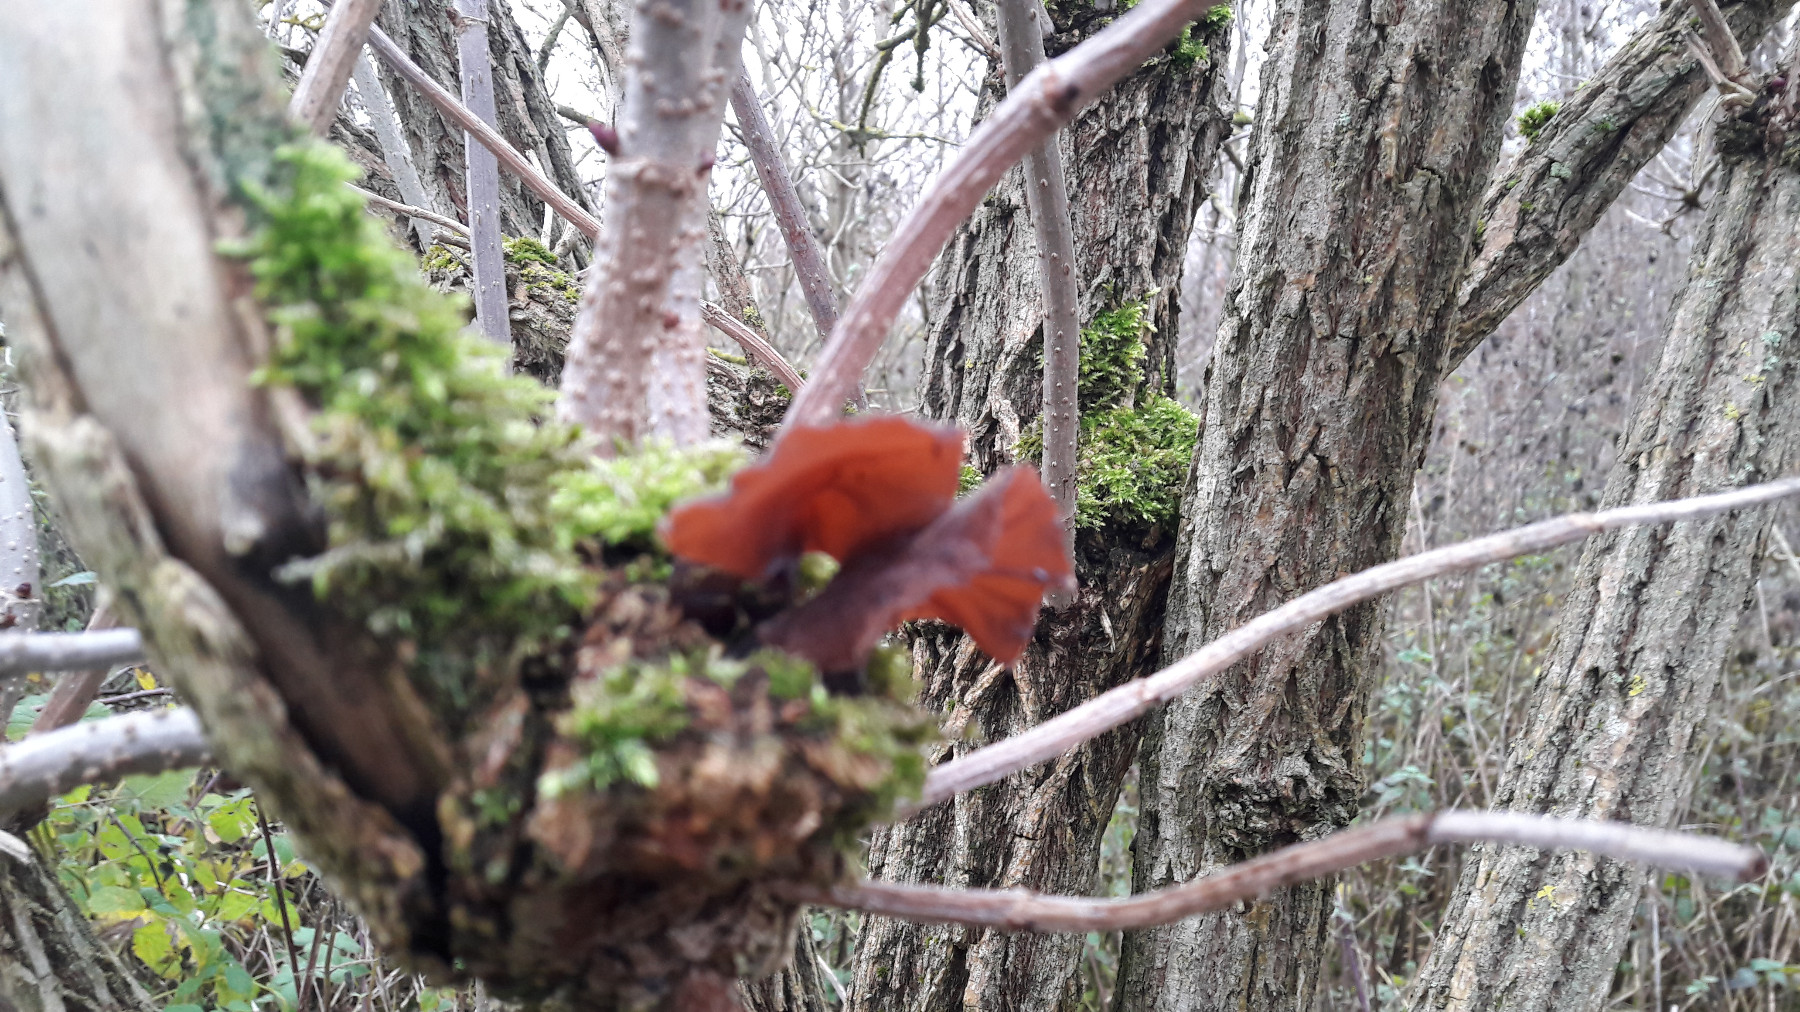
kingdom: Fungi
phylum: Basidiomycota
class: Agaricomycetes
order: Auriculariales
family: Auriculariaceae
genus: Auricularia
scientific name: Auricularia auricula-judae
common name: almindelig judasøre
